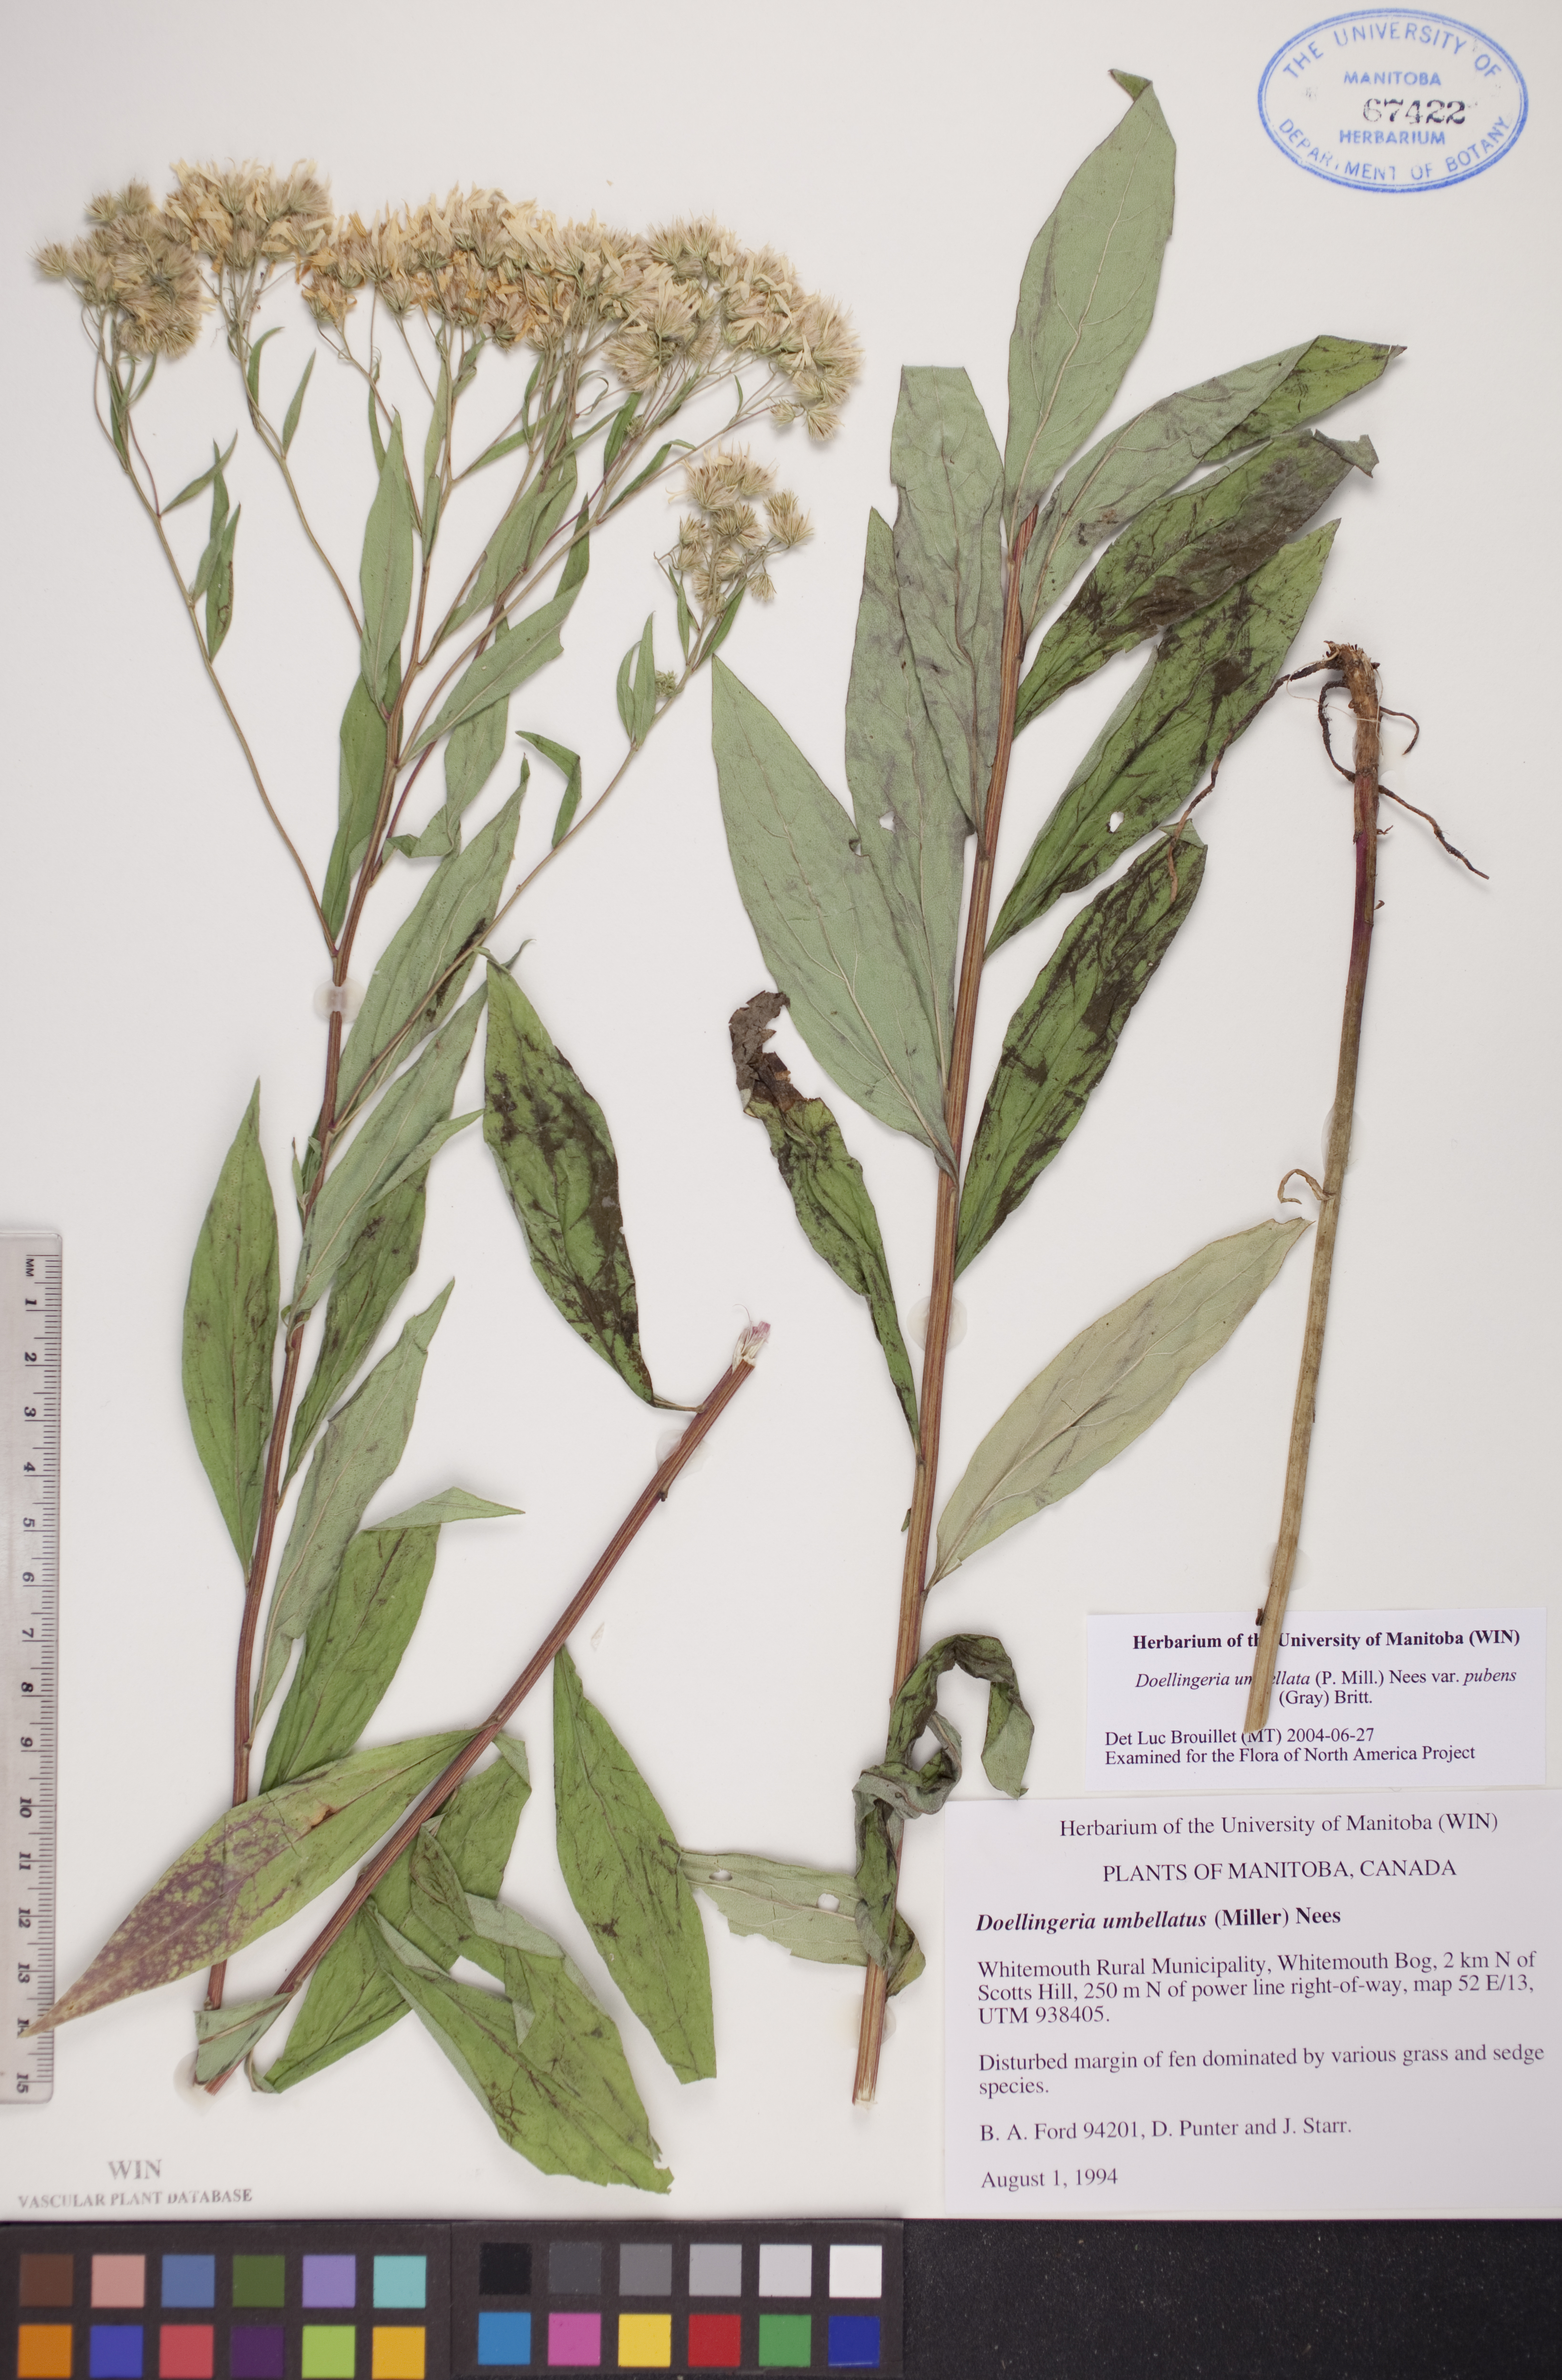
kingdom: Plantae
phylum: Tracheophyta
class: Magnoliopsida
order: Asterales
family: Asteraceae
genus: Doellingeria
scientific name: Doellingeria umbellata
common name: Flat-top white aster
